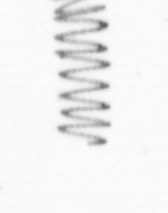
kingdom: Chromista
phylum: Ochrophyta
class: Bacillariophyceae
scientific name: Bacillariophyceae
